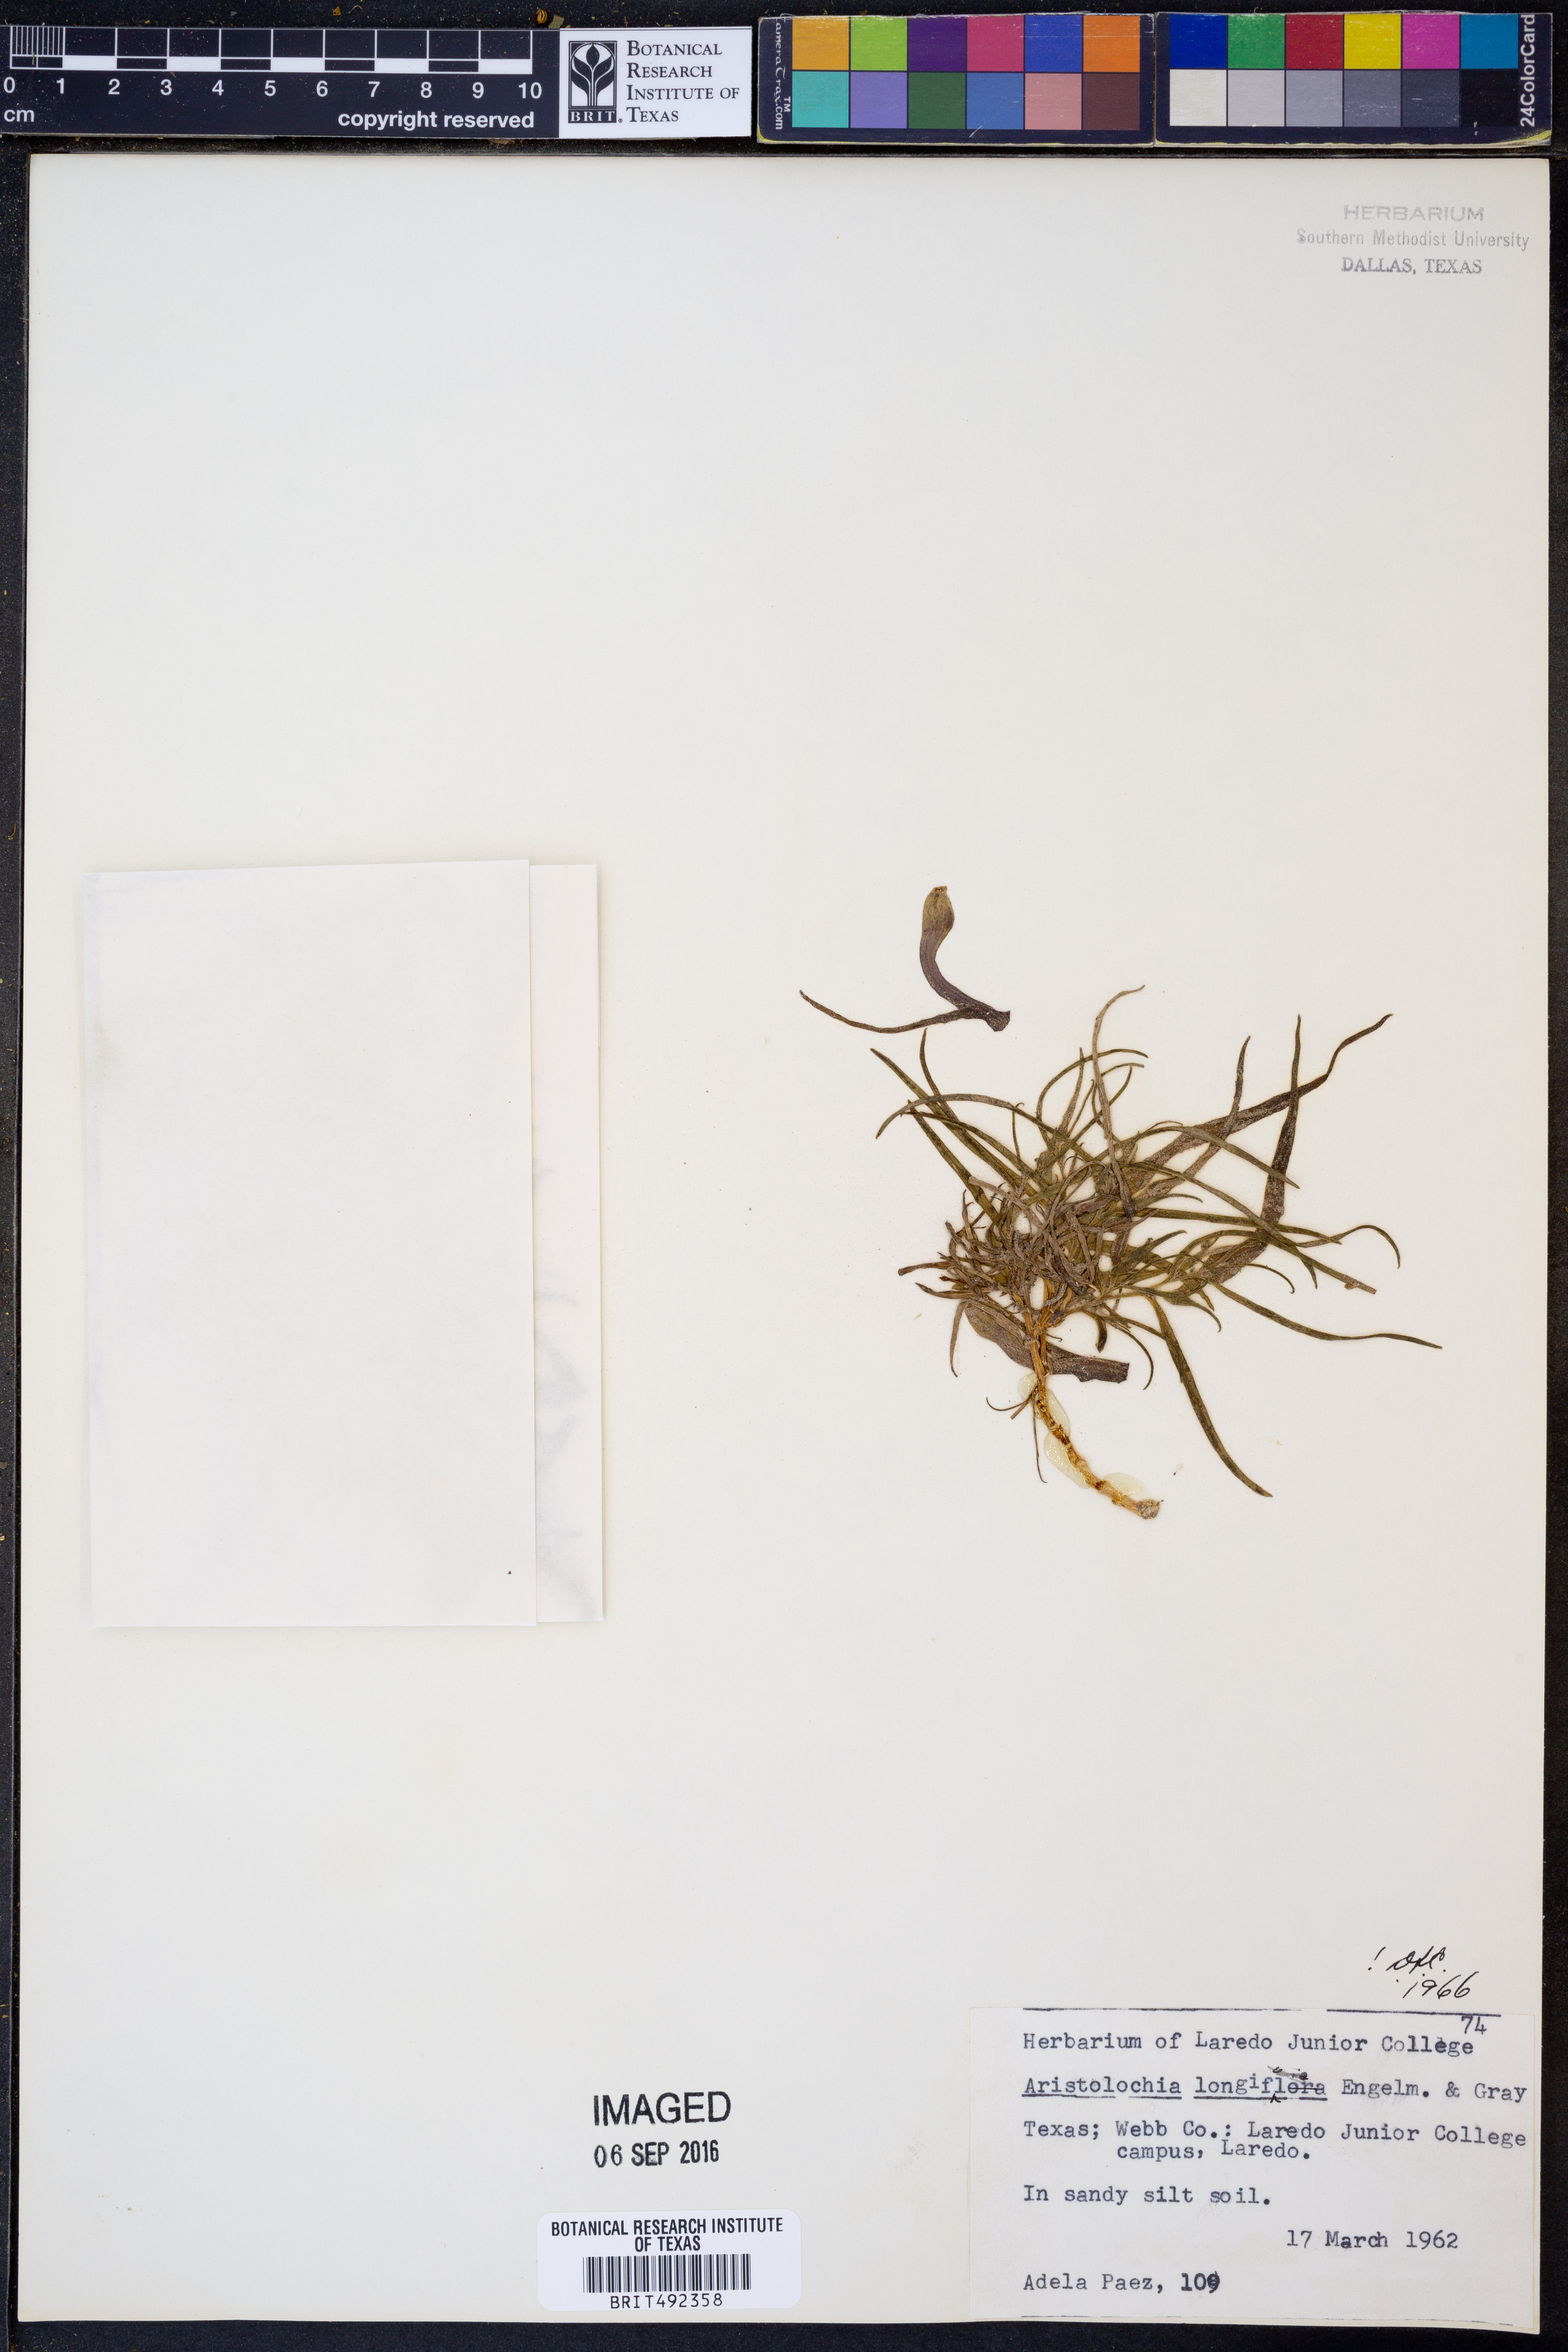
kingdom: Plantae
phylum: Tracheophyta
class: Magnoliopsida
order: Piperales
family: Aristolochiaceae
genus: Aristolochia
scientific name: Aristolochia acuminata
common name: Indian birthwort
